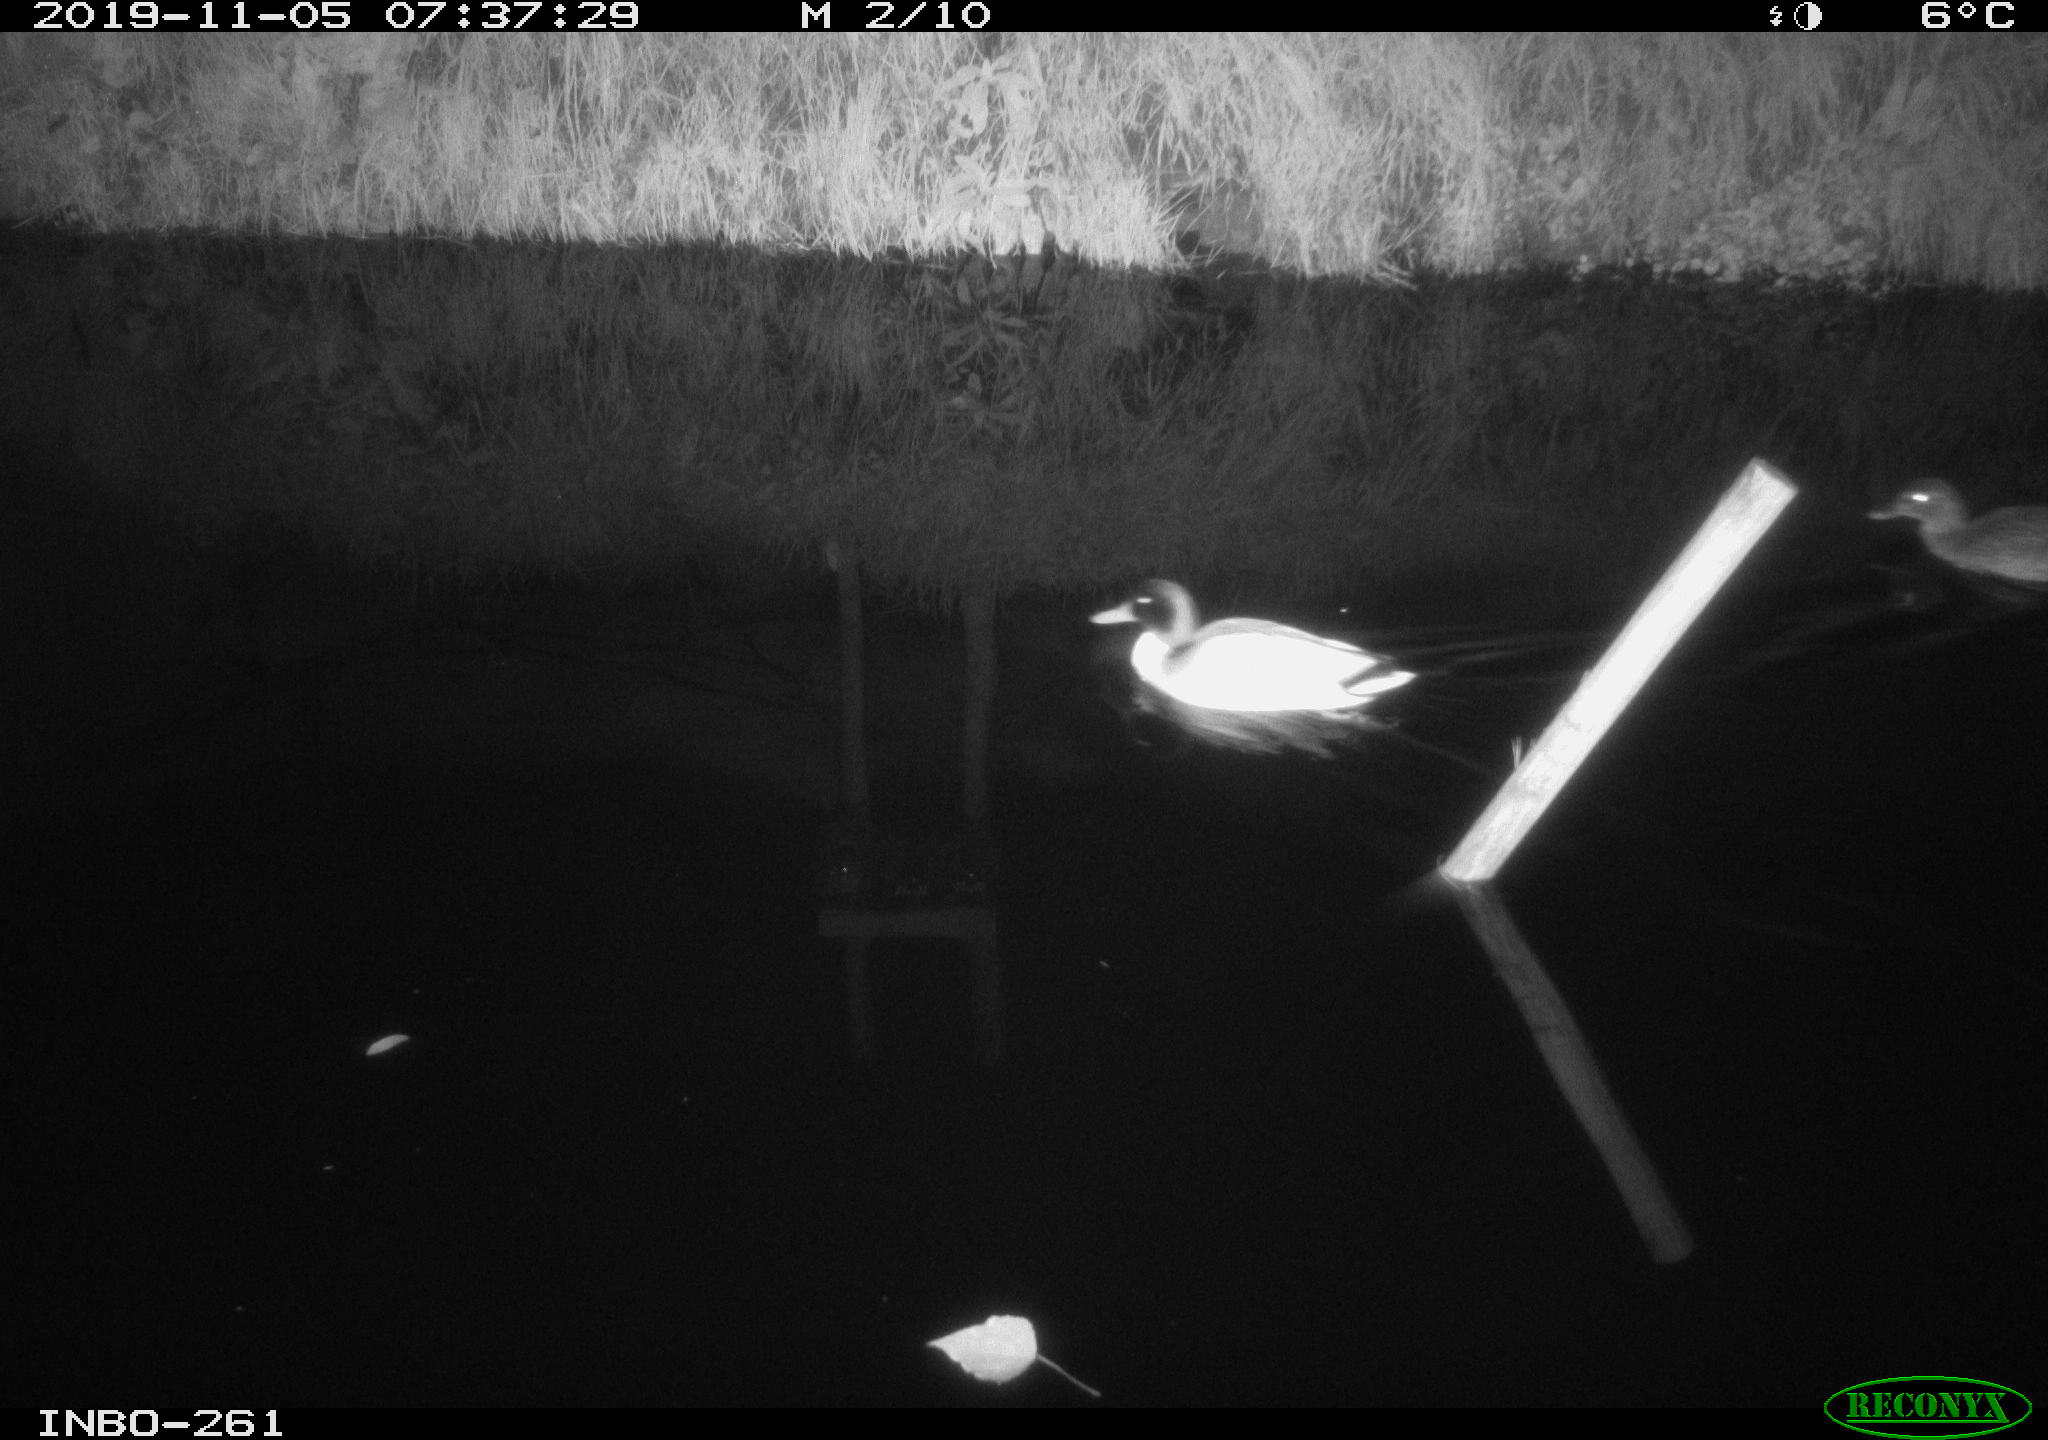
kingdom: Animalia
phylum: Chordata
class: Aves
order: Anseriformes
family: Anatidae
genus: Anas
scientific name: Anas platyrhynchos
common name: Mallard
